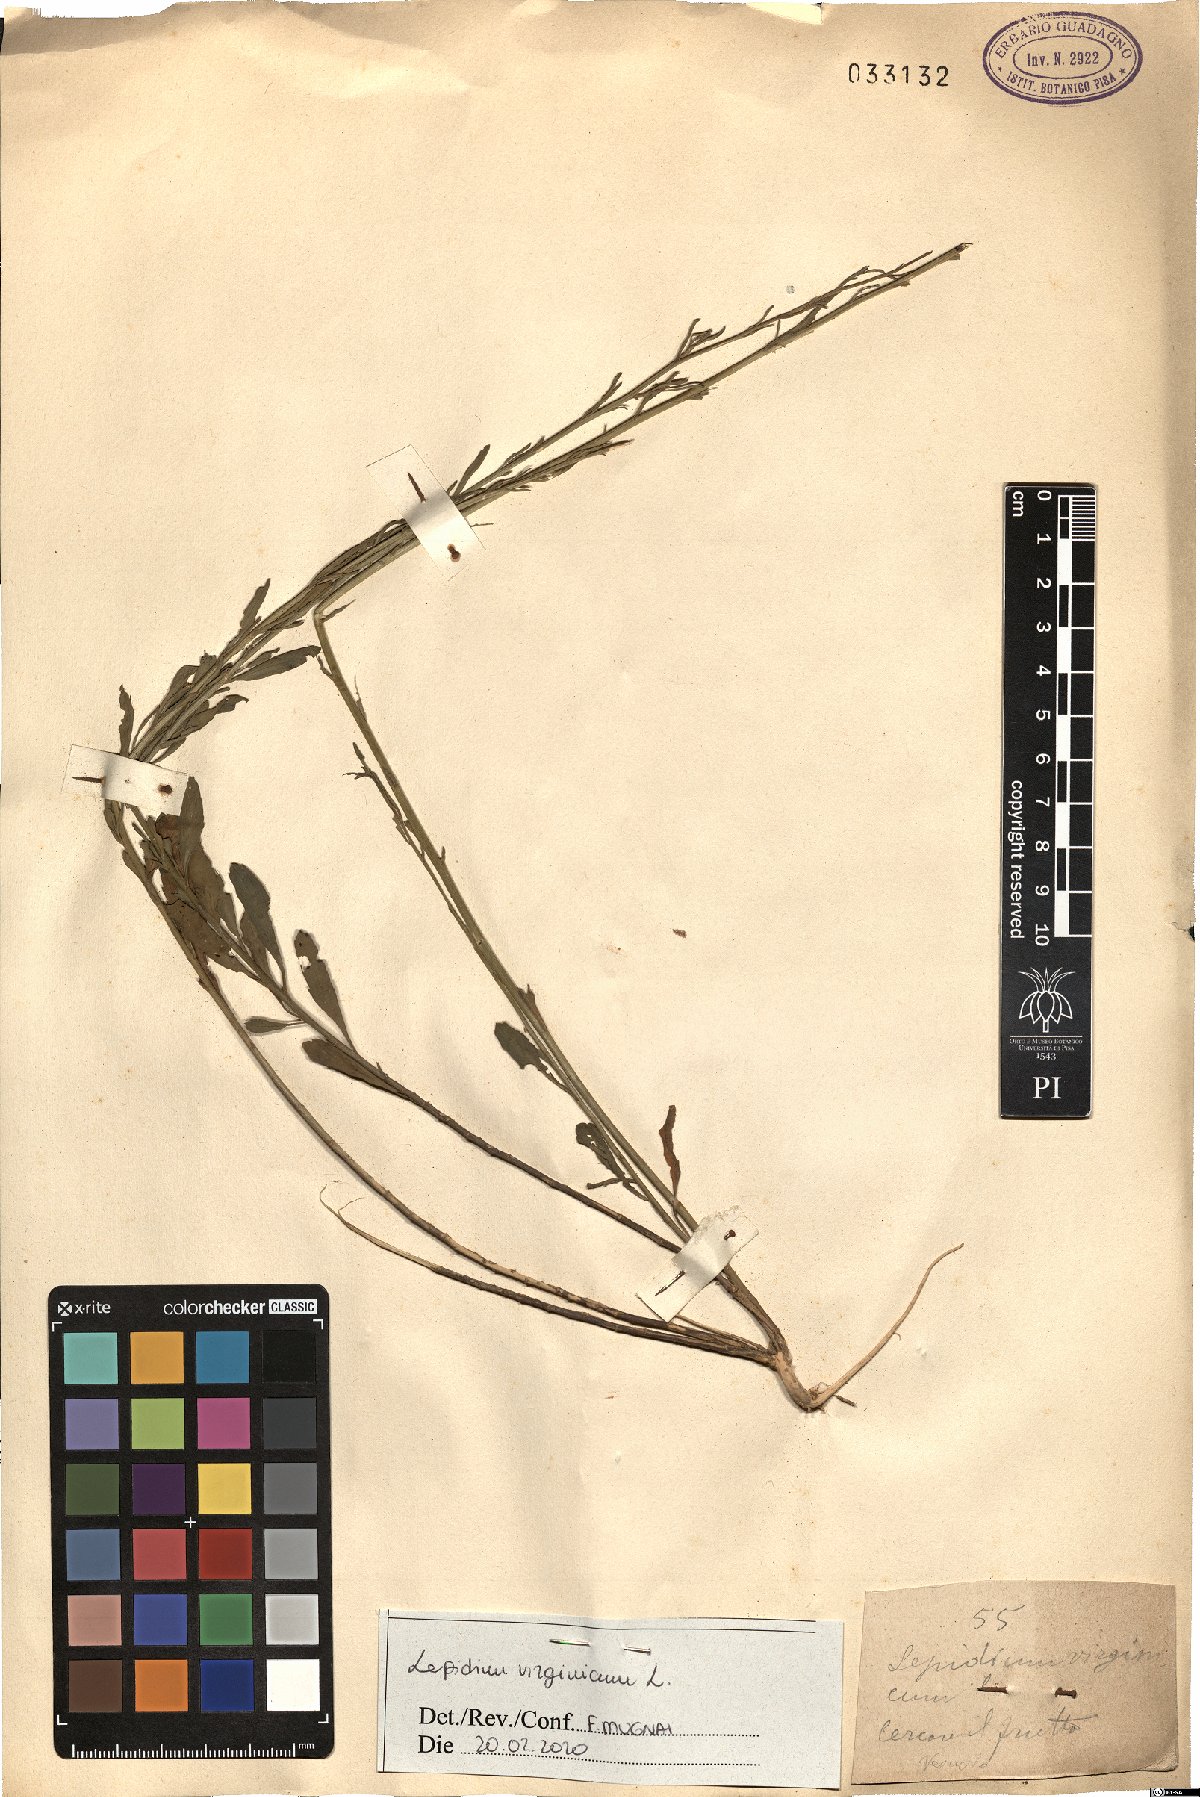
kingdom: Plantae
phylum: Tracheophyta
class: Magnoliopsida
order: Brassicales
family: Brassicaceae
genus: Lepidium
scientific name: Lepidium virginicum
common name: Least pepperwort
